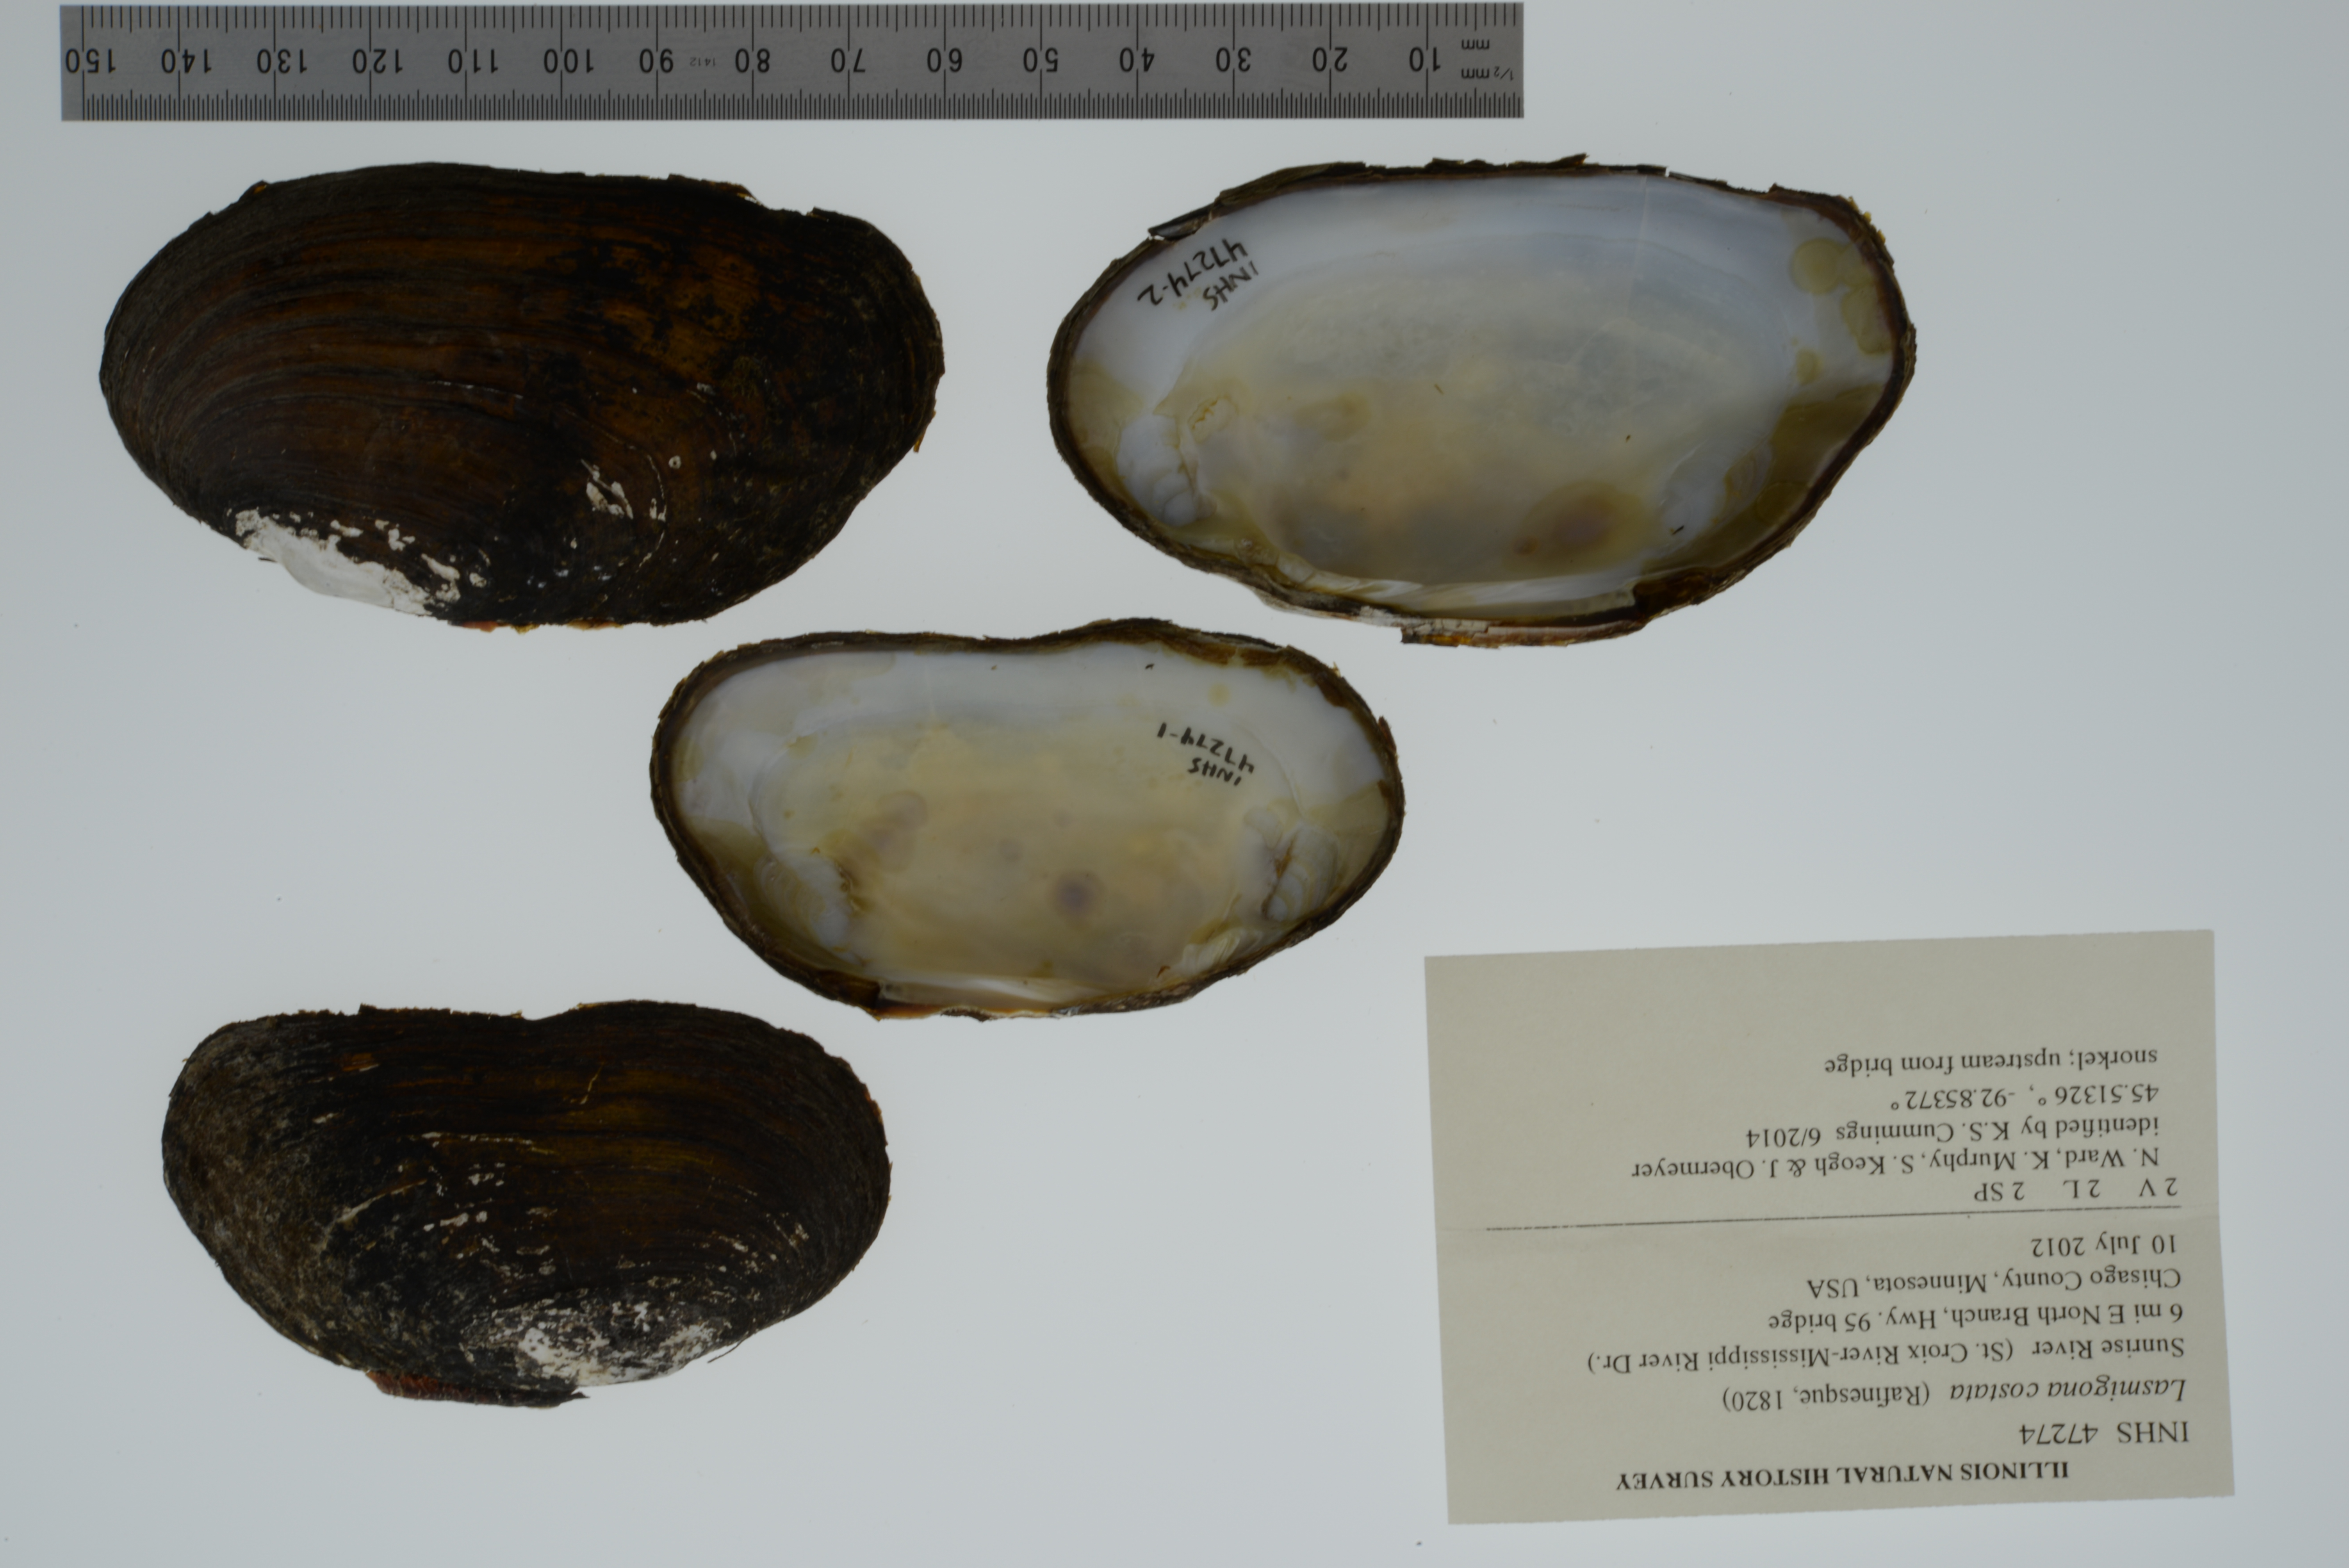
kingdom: Animalia
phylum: Mollusca
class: Bivalvia
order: Unionida
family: Unionidae
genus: Lasmigona
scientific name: Lasmigona costata
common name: Flutedshell
